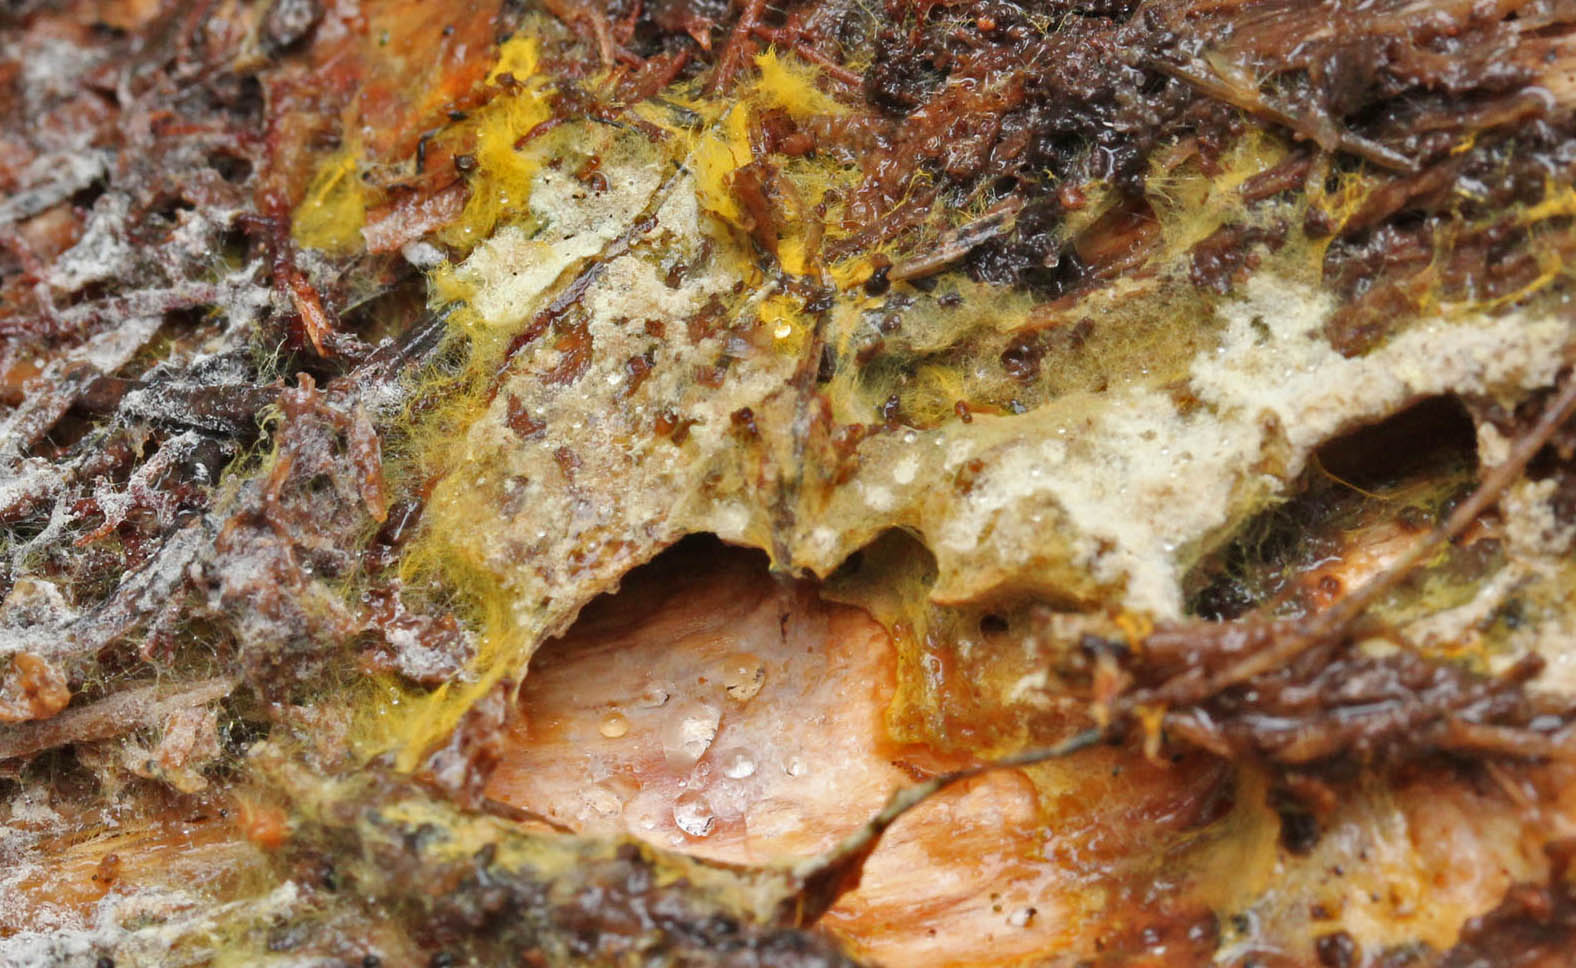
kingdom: Fungi
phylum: Basidiomycota
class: Agaricomycetes
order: Atheliales
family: Atheliaceae
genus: Piloderma
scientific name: Piloderma bicolor
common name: gul førnehinde
